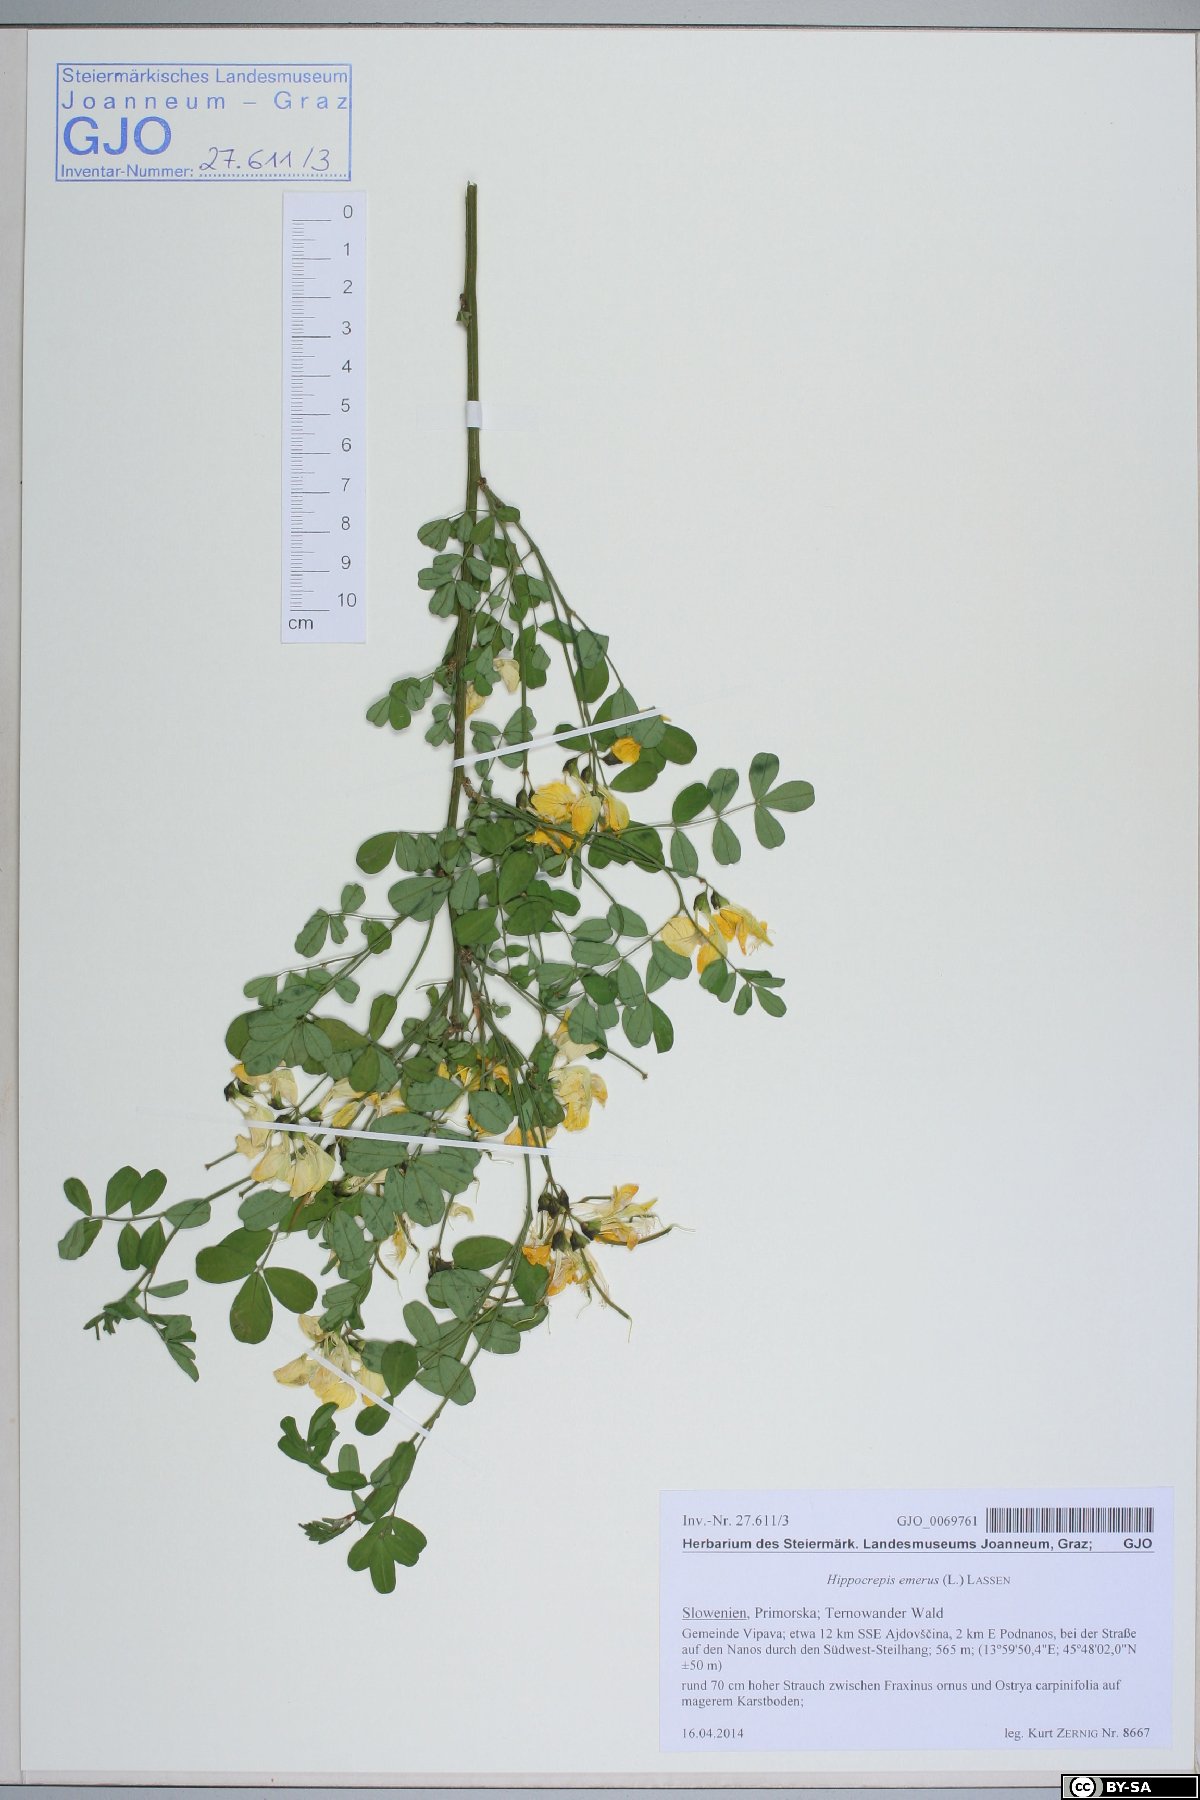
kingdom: Plantae
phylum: Tracheophyta
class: Magnoliopsida
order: Fabales
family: Fabaceae
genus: Hippocrepis
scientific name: Hippocrepis emerus
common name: Scorpion senna
